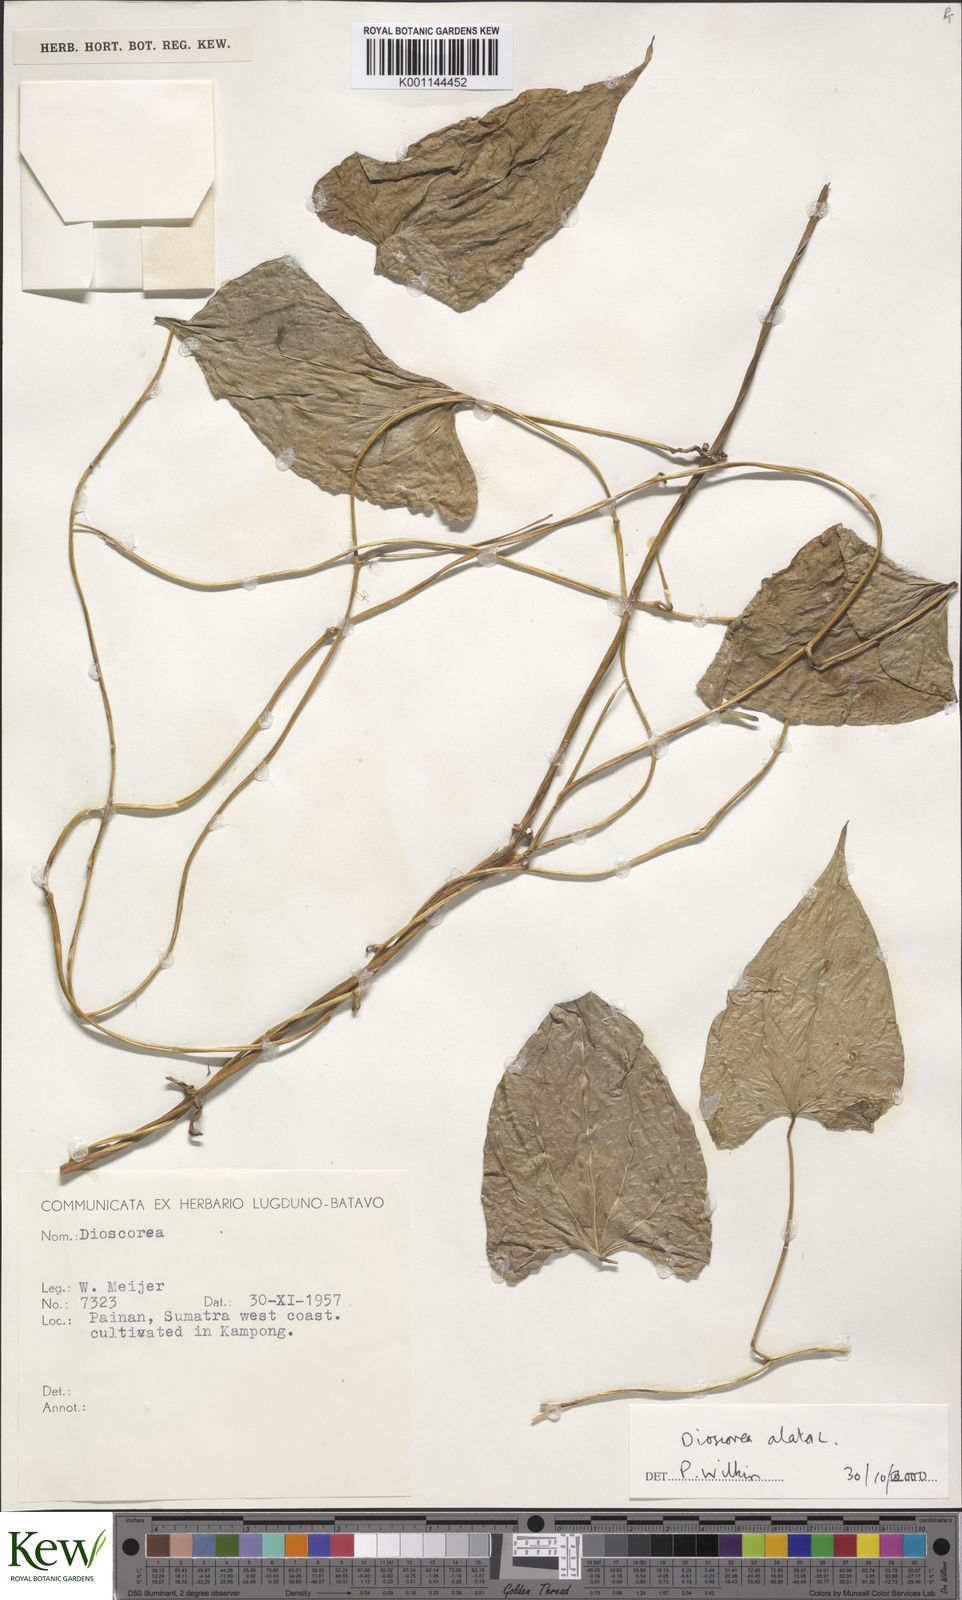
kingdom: Plantae
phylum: Tracheophyta
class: Liliopsida
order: Dioscoreales
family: Dioscoreaceae
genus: Dioscorea
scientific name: Dioscorea alata
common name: Water yam
